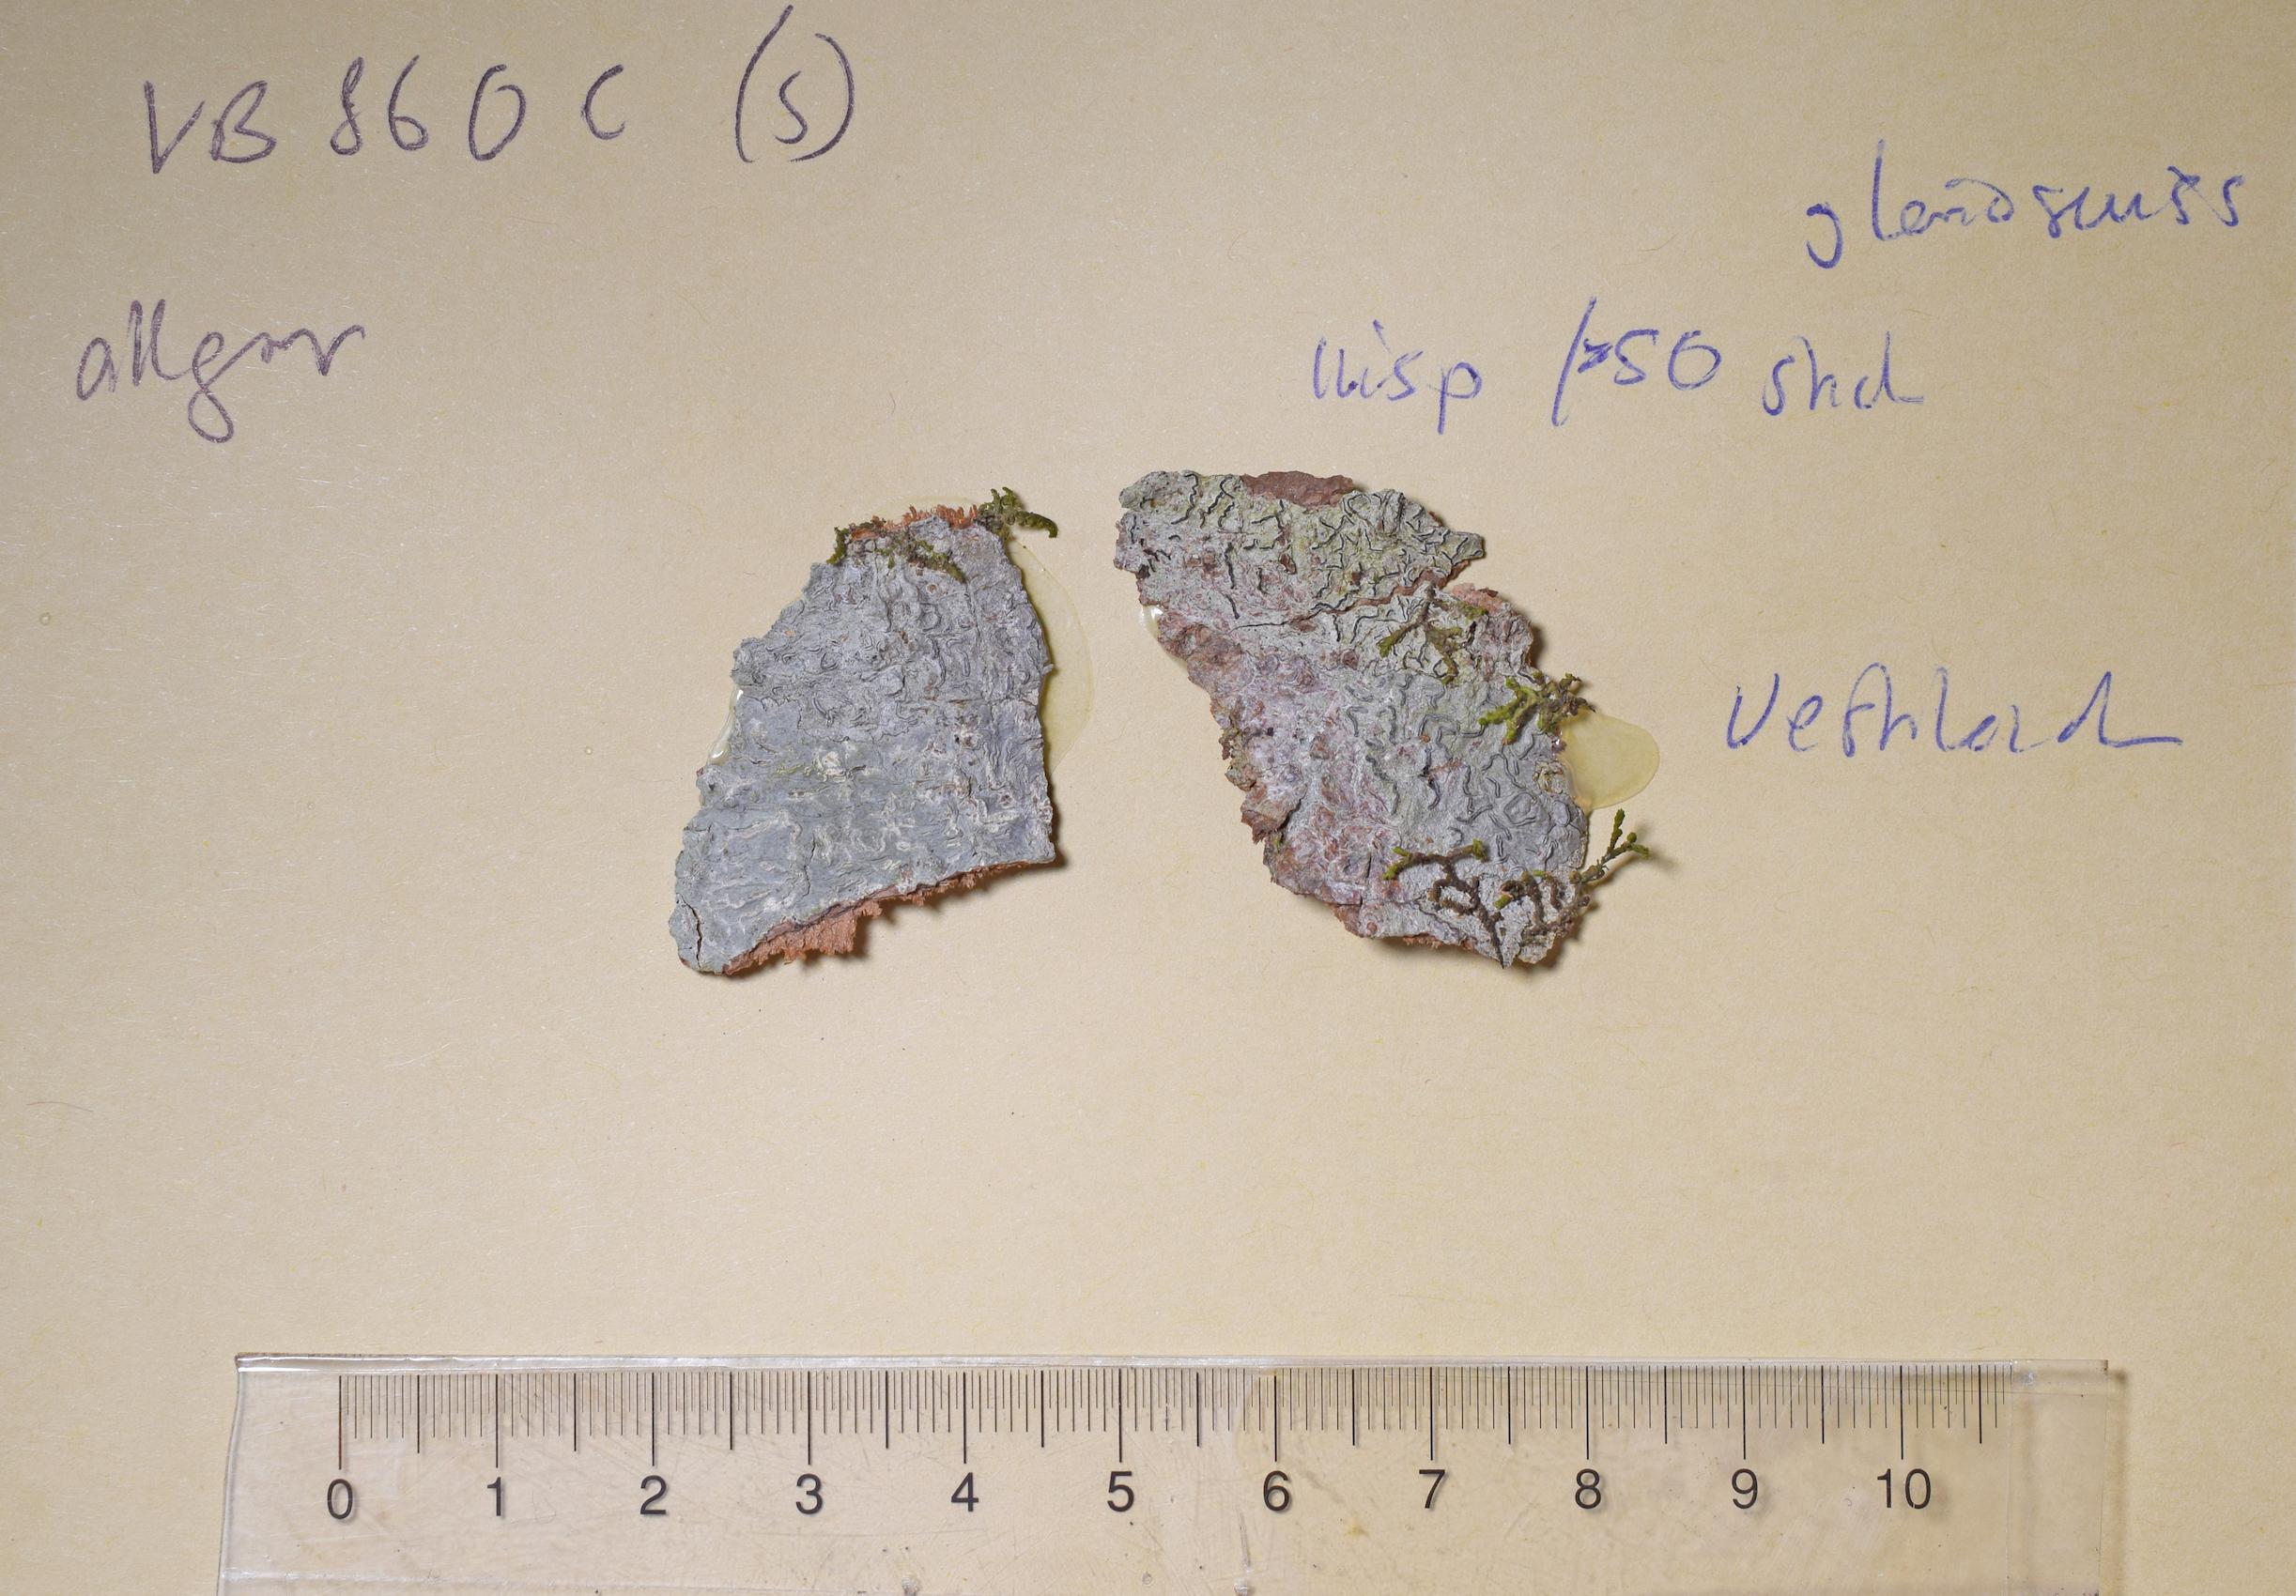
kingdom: Fungi
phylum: Ascomycota
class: Lecanoromycetes
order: Ostropales
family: Graphidaceae
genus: Allographa
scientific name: Allographa
